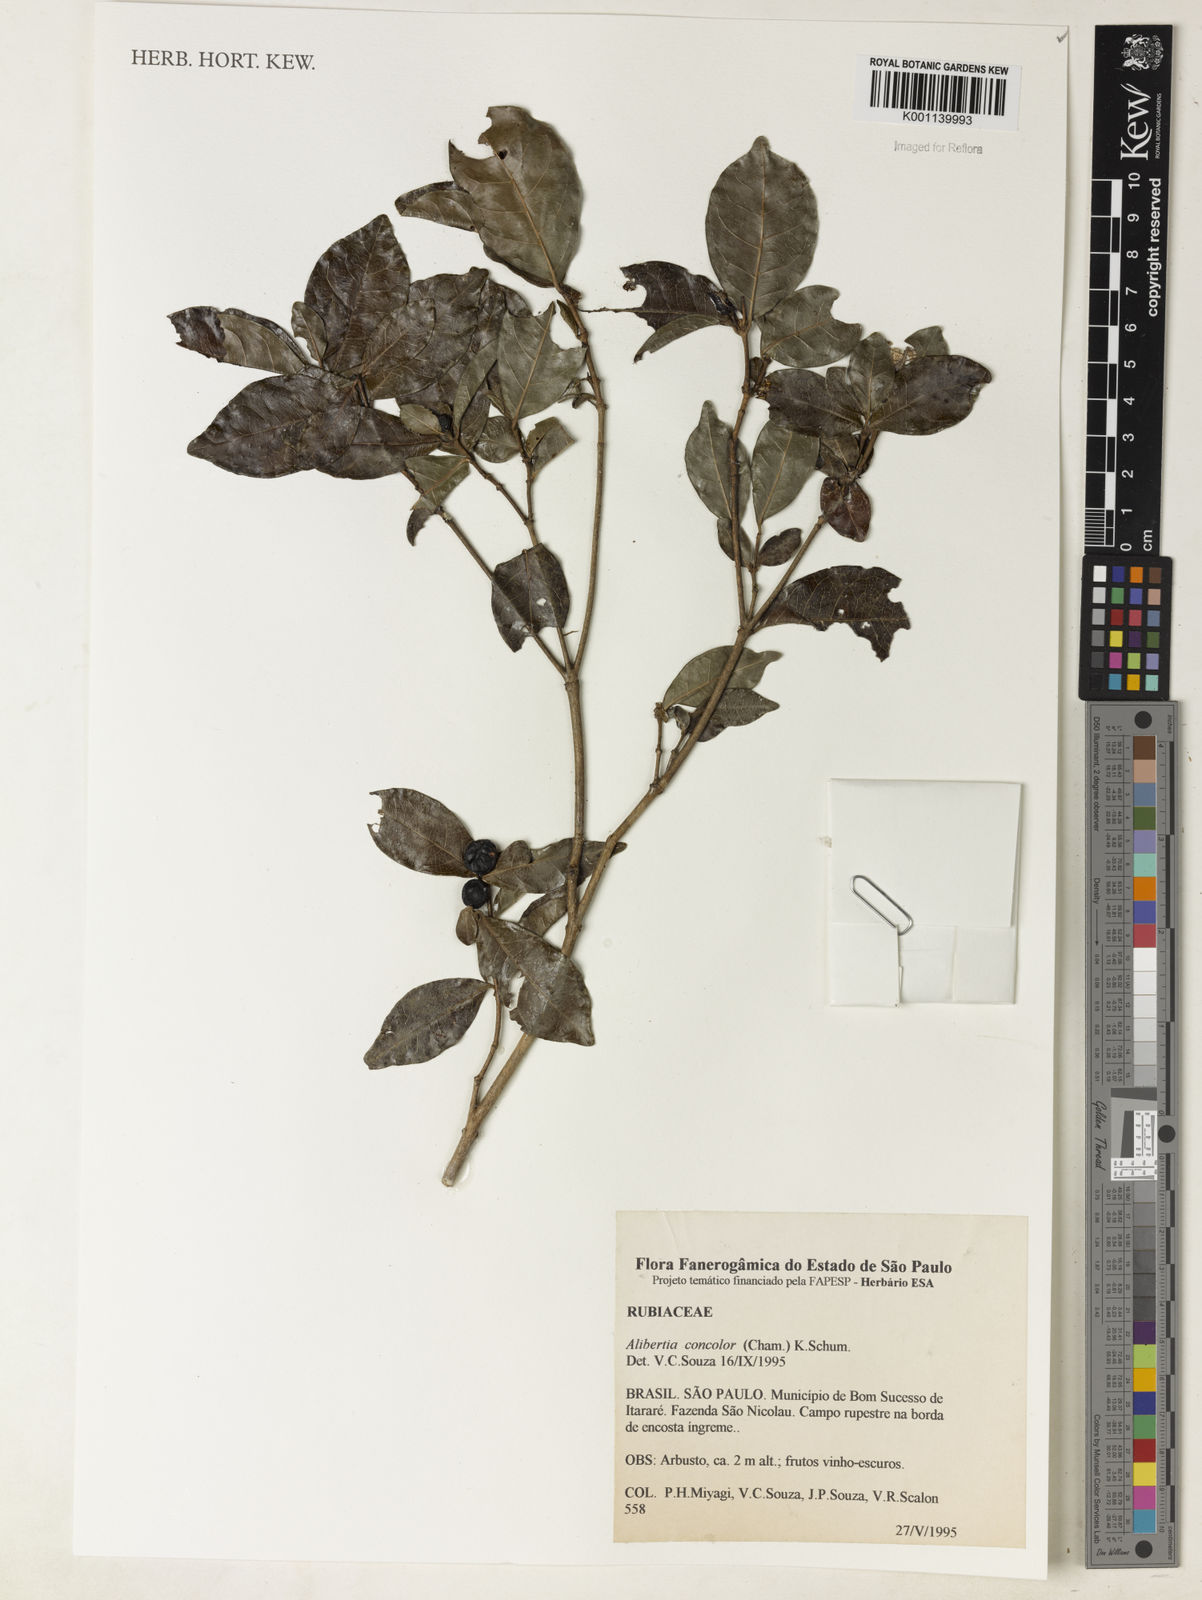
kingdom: Plantae
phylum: Tracheophyta
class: Magnoliopsida
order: Gentianales
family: Rubiaceae
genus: Cordiera
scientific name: Cordiera concolor
